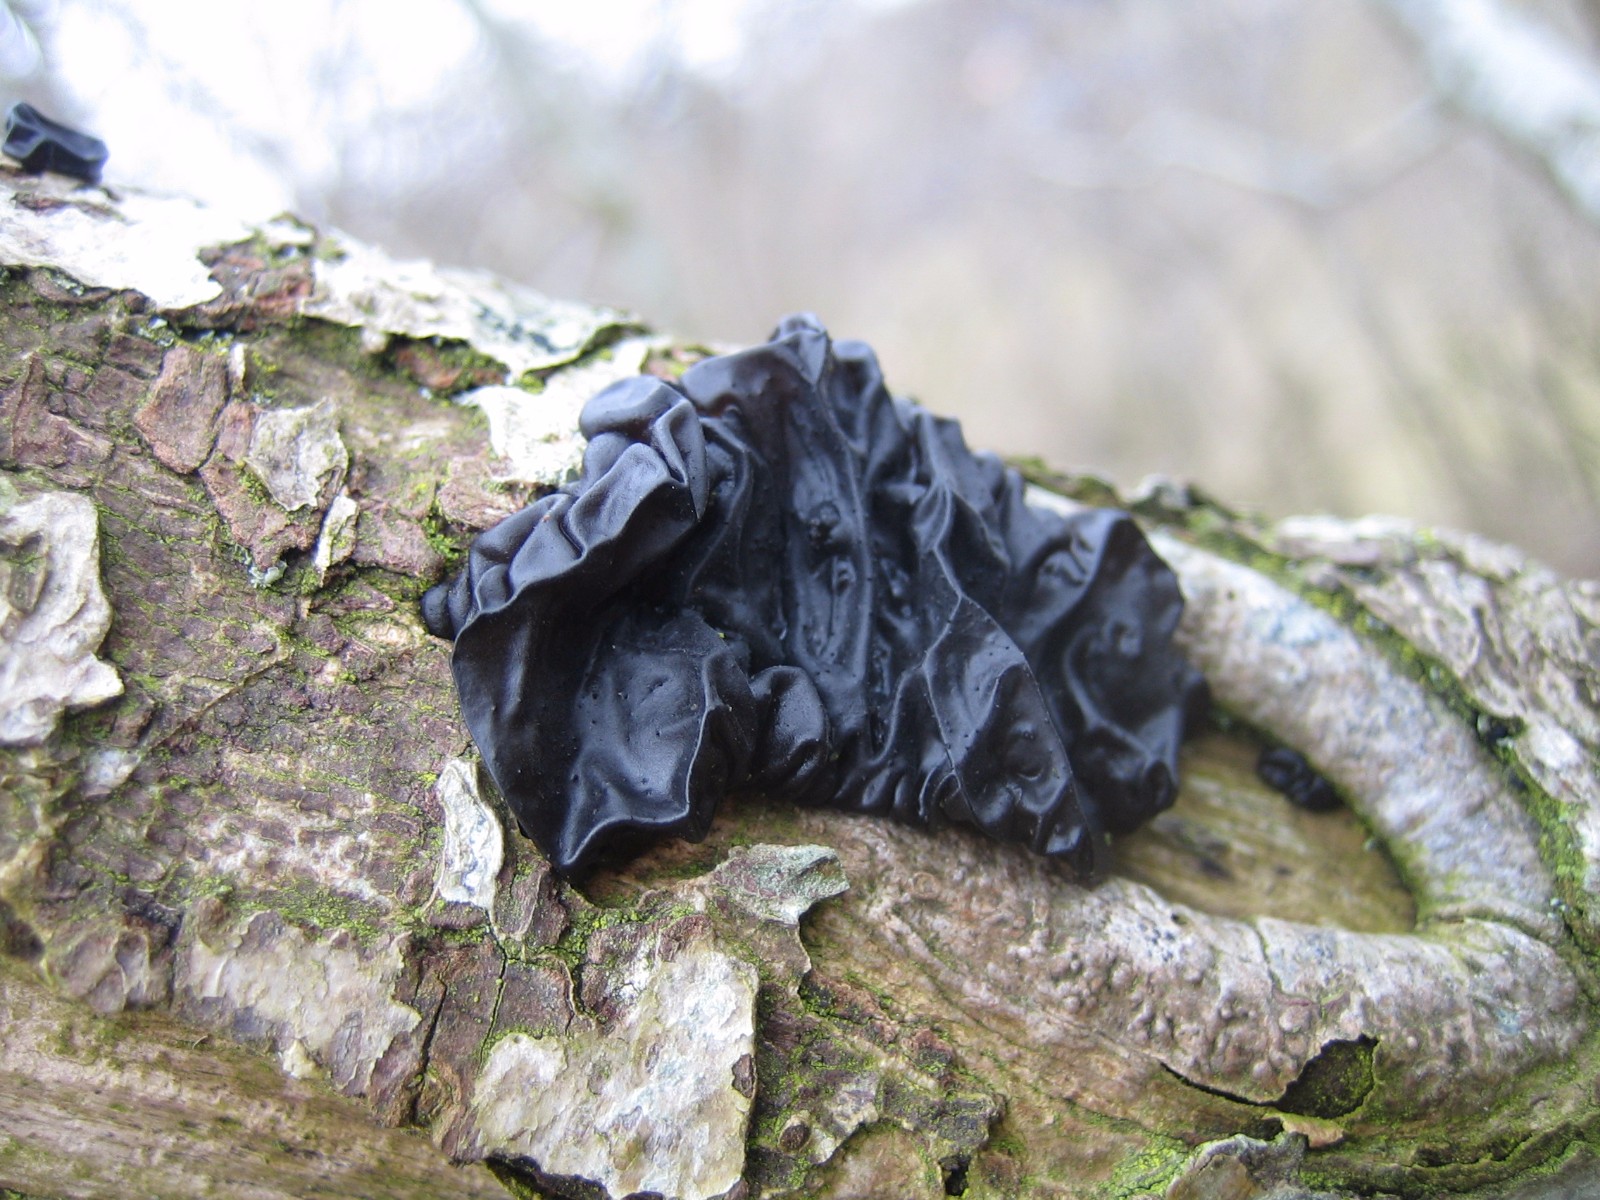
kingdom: Fungi
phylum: Basidiomycota
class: Agaricomycetes
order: Auriculariales
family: Auriculariaceae
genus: Exidia
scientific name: Exidia glandulosa
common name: ege-bævretop
